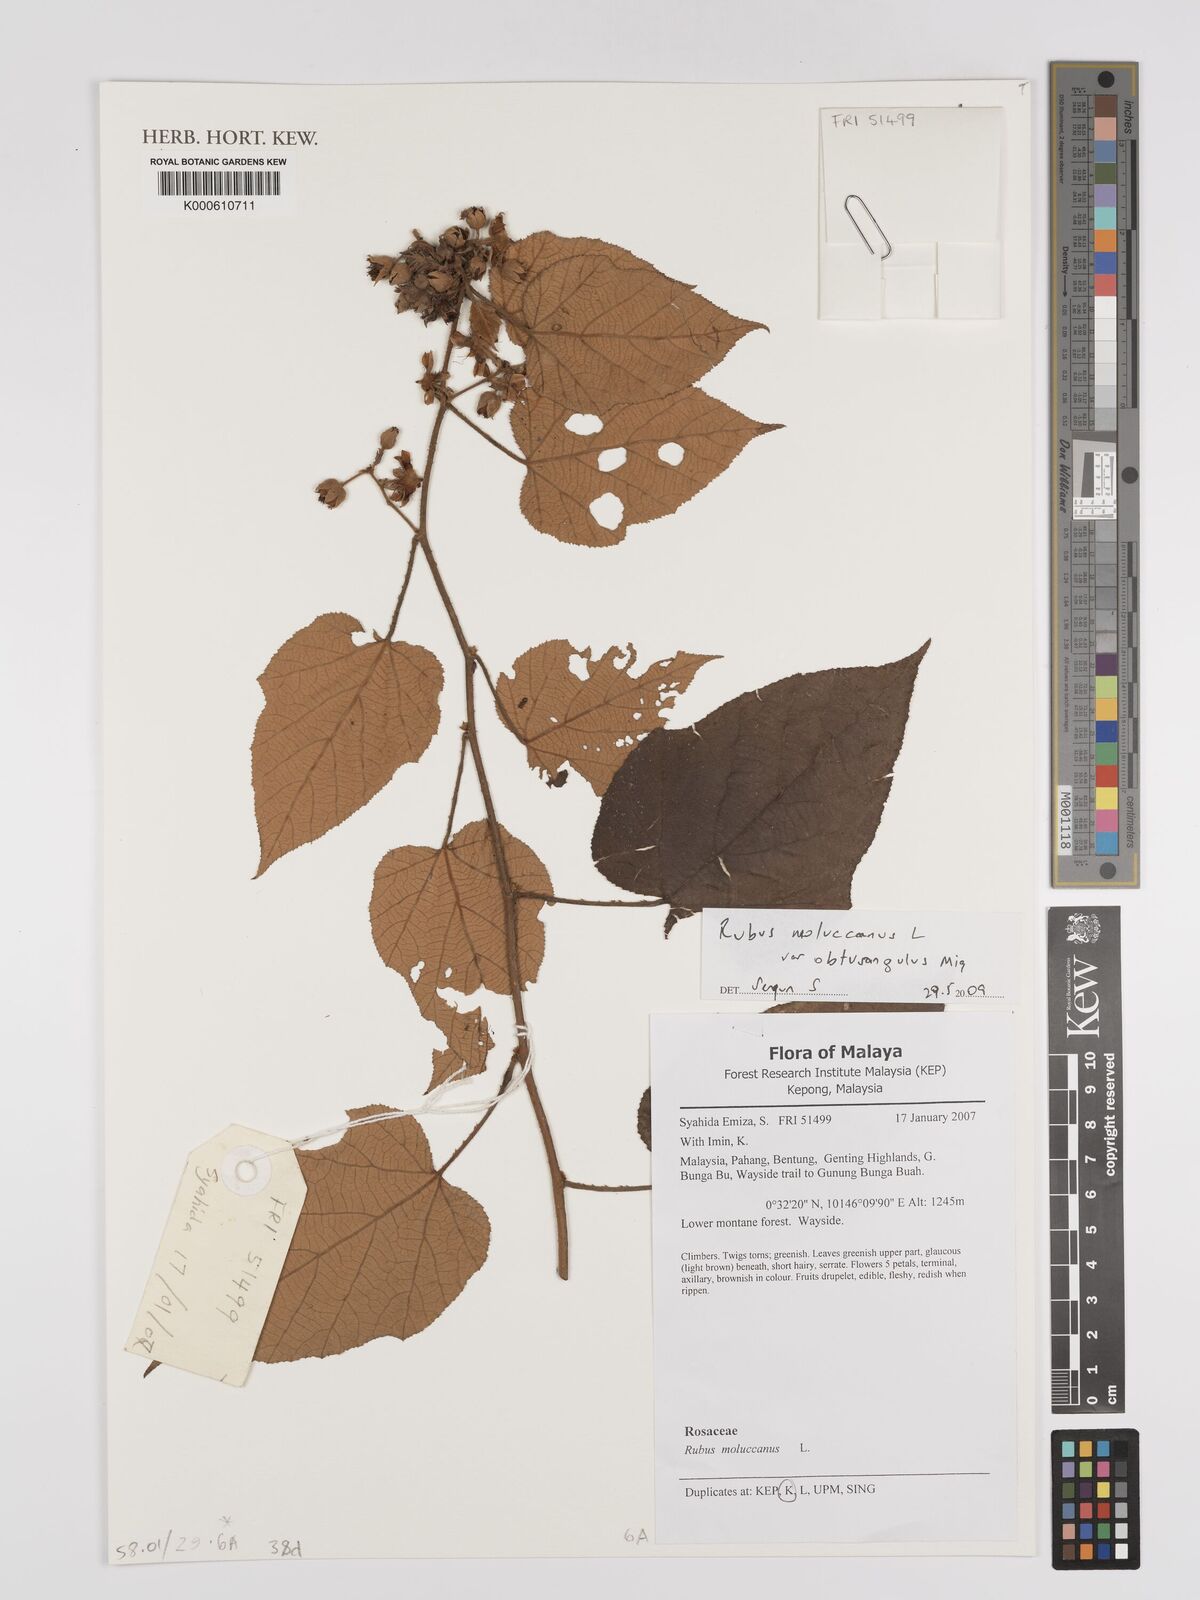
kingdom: Plantae
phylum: Tracheophyta
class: Magnoliopsida
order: Rosales
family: Rosaceae
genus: Rubus
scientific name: Rubus moluccanus
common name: Wild raspberry
